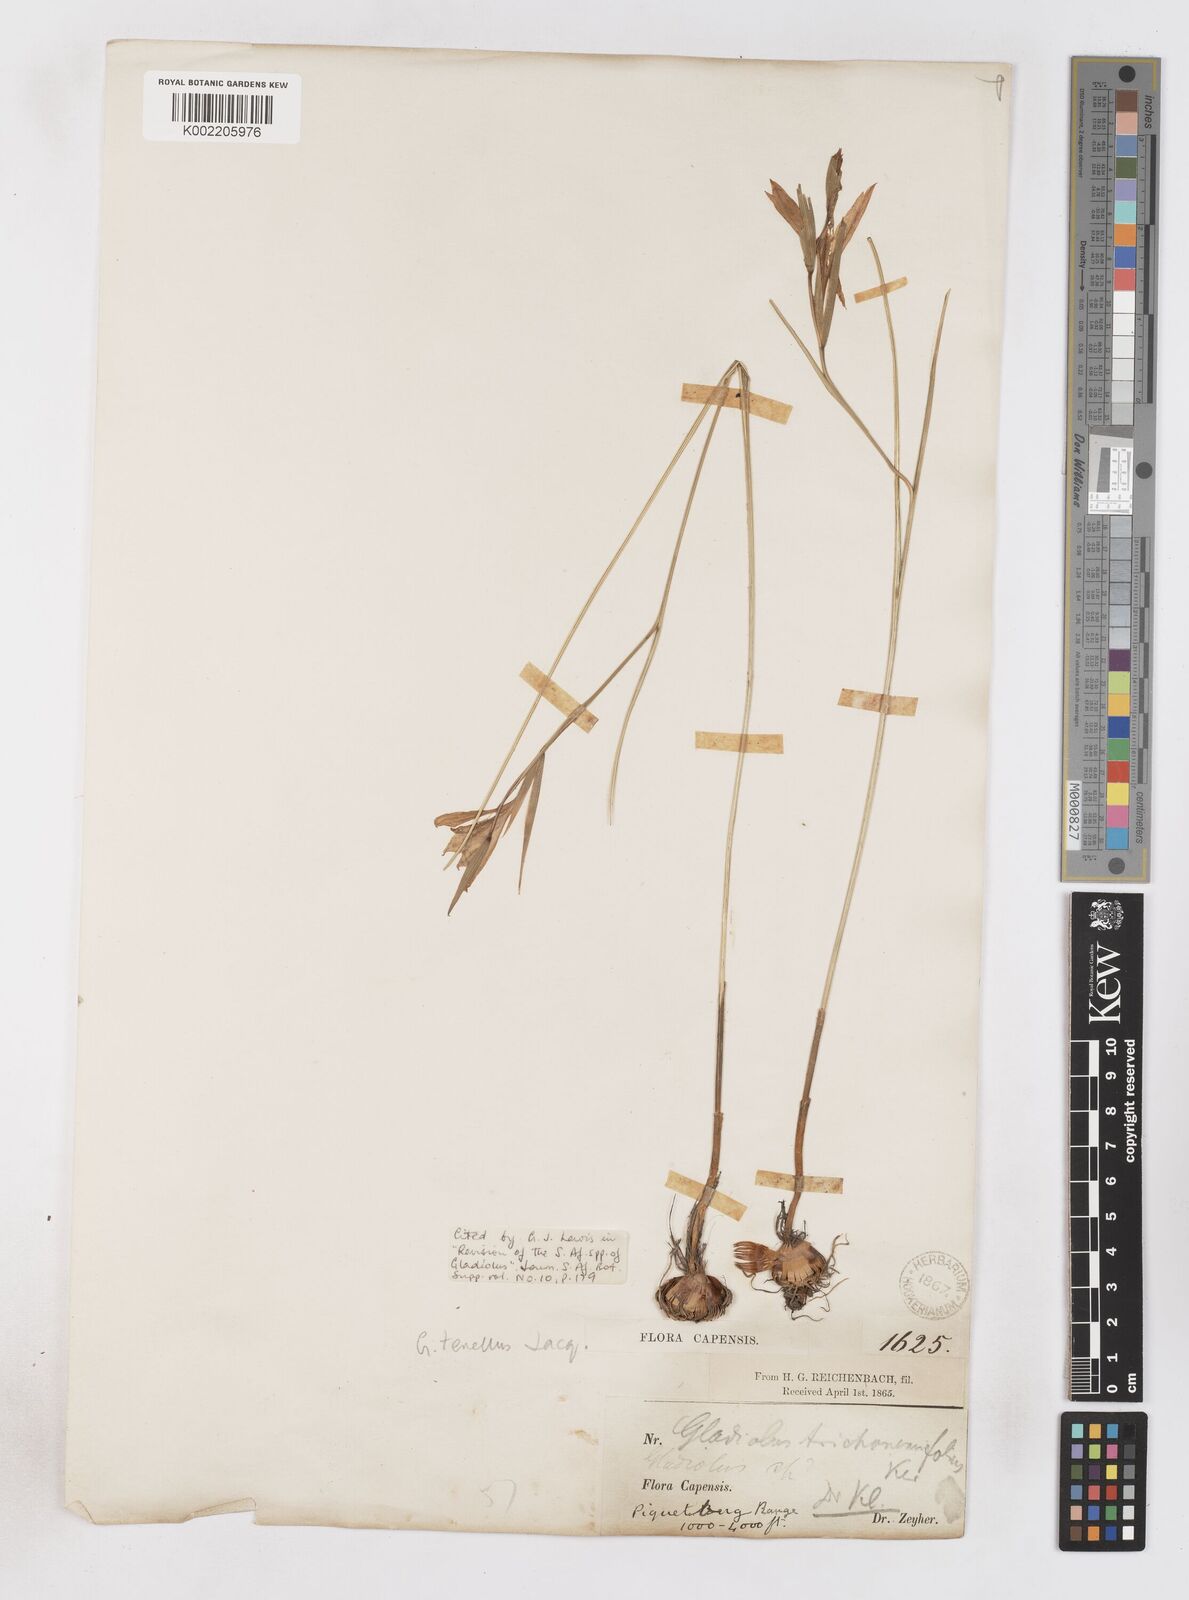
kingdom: Plantae
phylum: Tracheophyta
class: Liliopsida
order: Asparagales
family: Iridaceae
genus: Gladiolus
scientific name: Gladiolus carinatus
